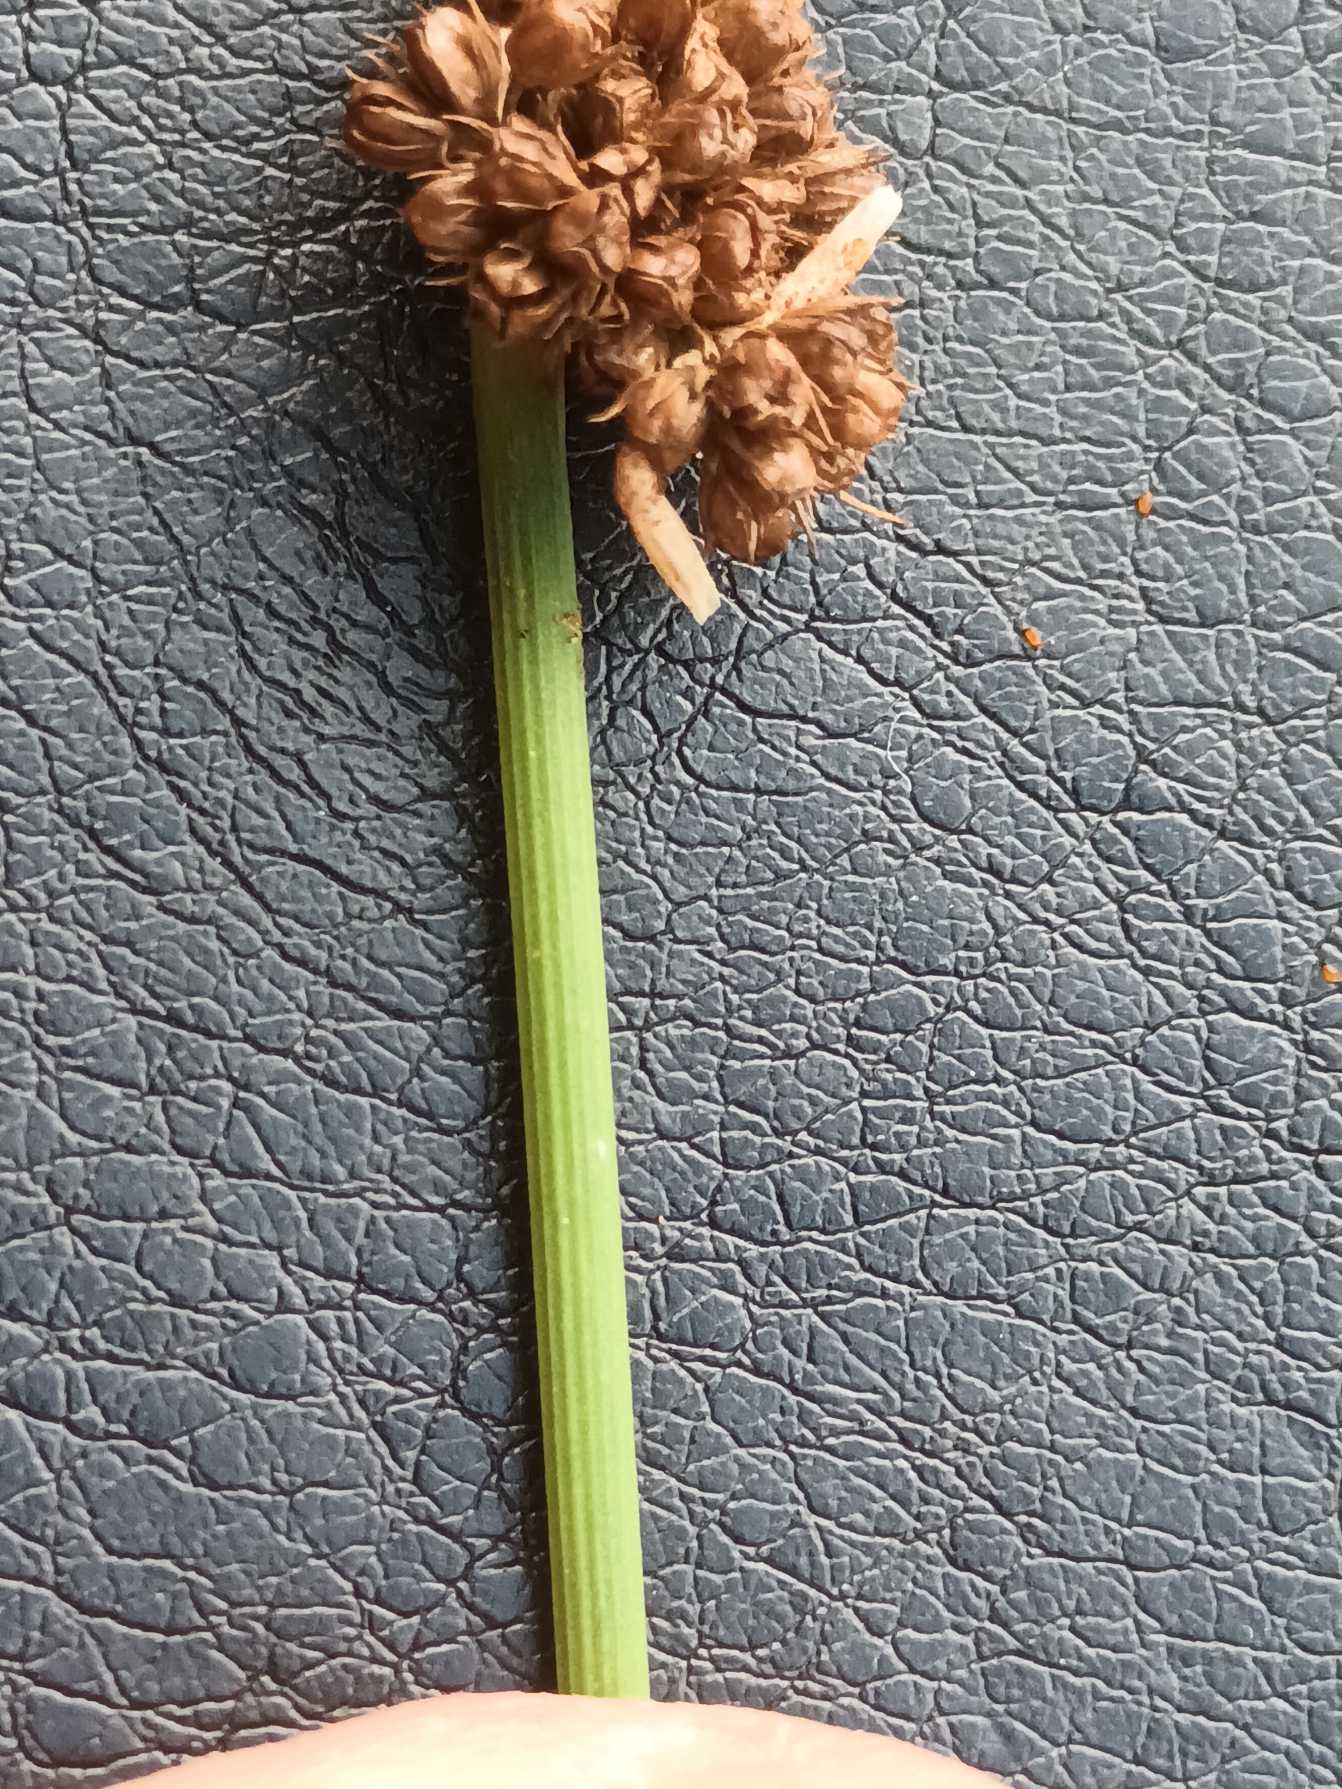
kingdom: Plantae
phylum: Tracheophyta
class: Liliopsida
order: Poales
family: Juncaceae
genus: Juncus
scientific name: Juncus conglomeratus
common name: Knop-siv
